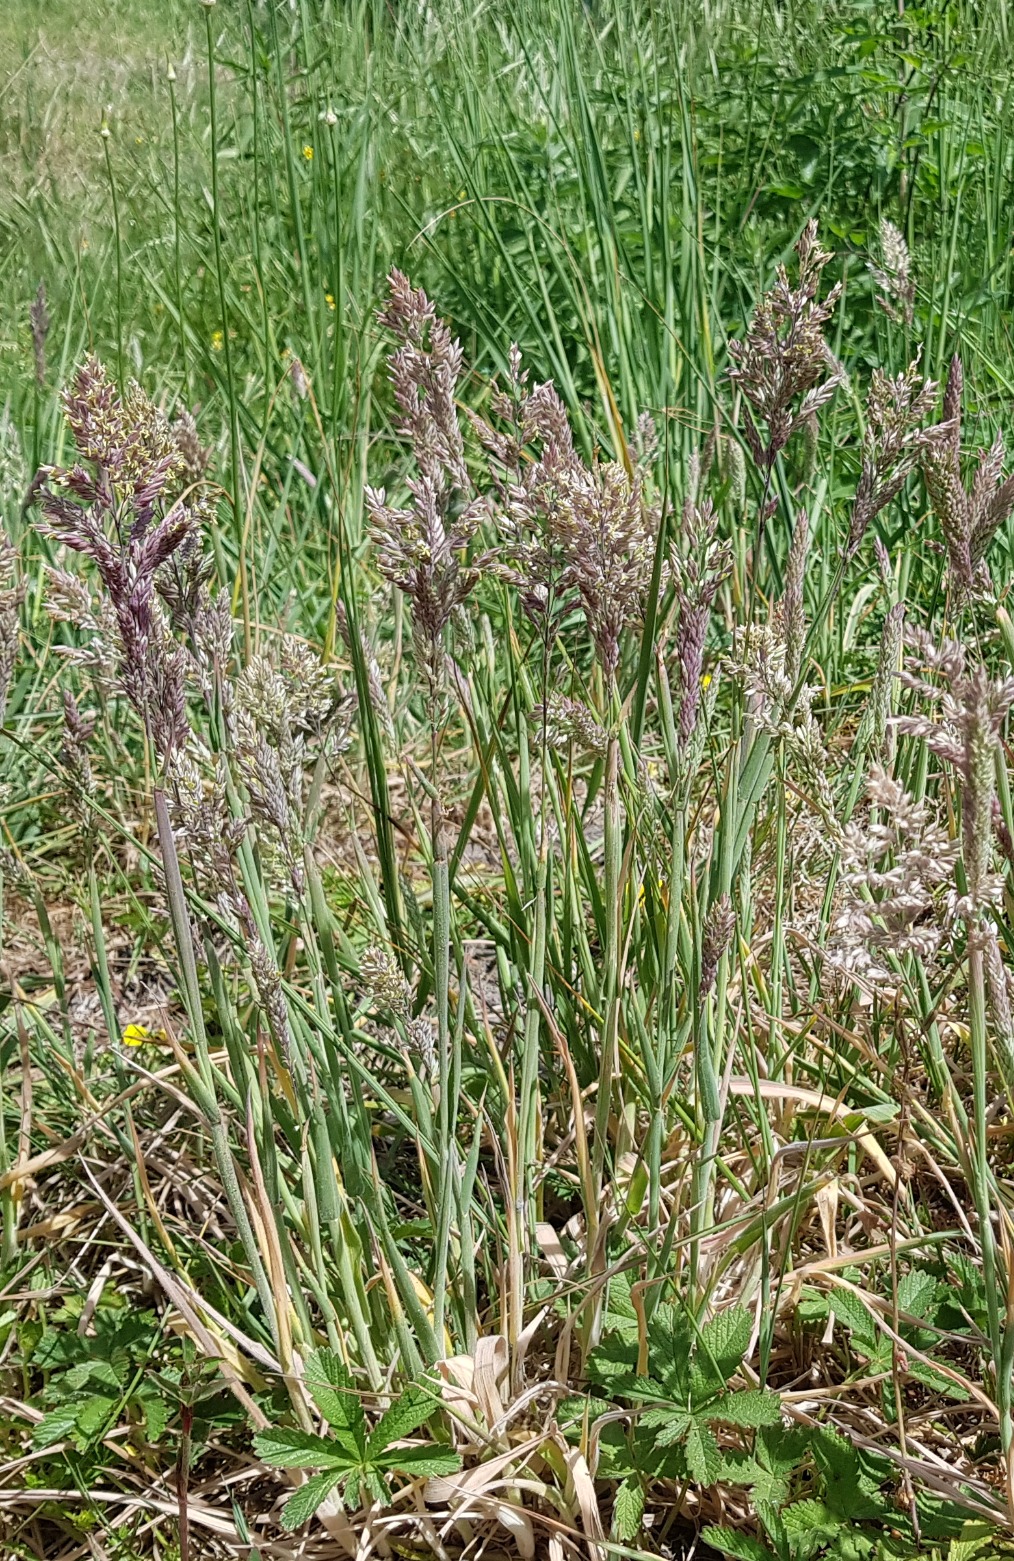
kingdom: Plantae
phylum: Tracheophyta
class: Liliopsida
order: Poales
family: Poaceae
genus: Holcus
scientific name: Holcus lanatus
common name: Fløjlsgræs
